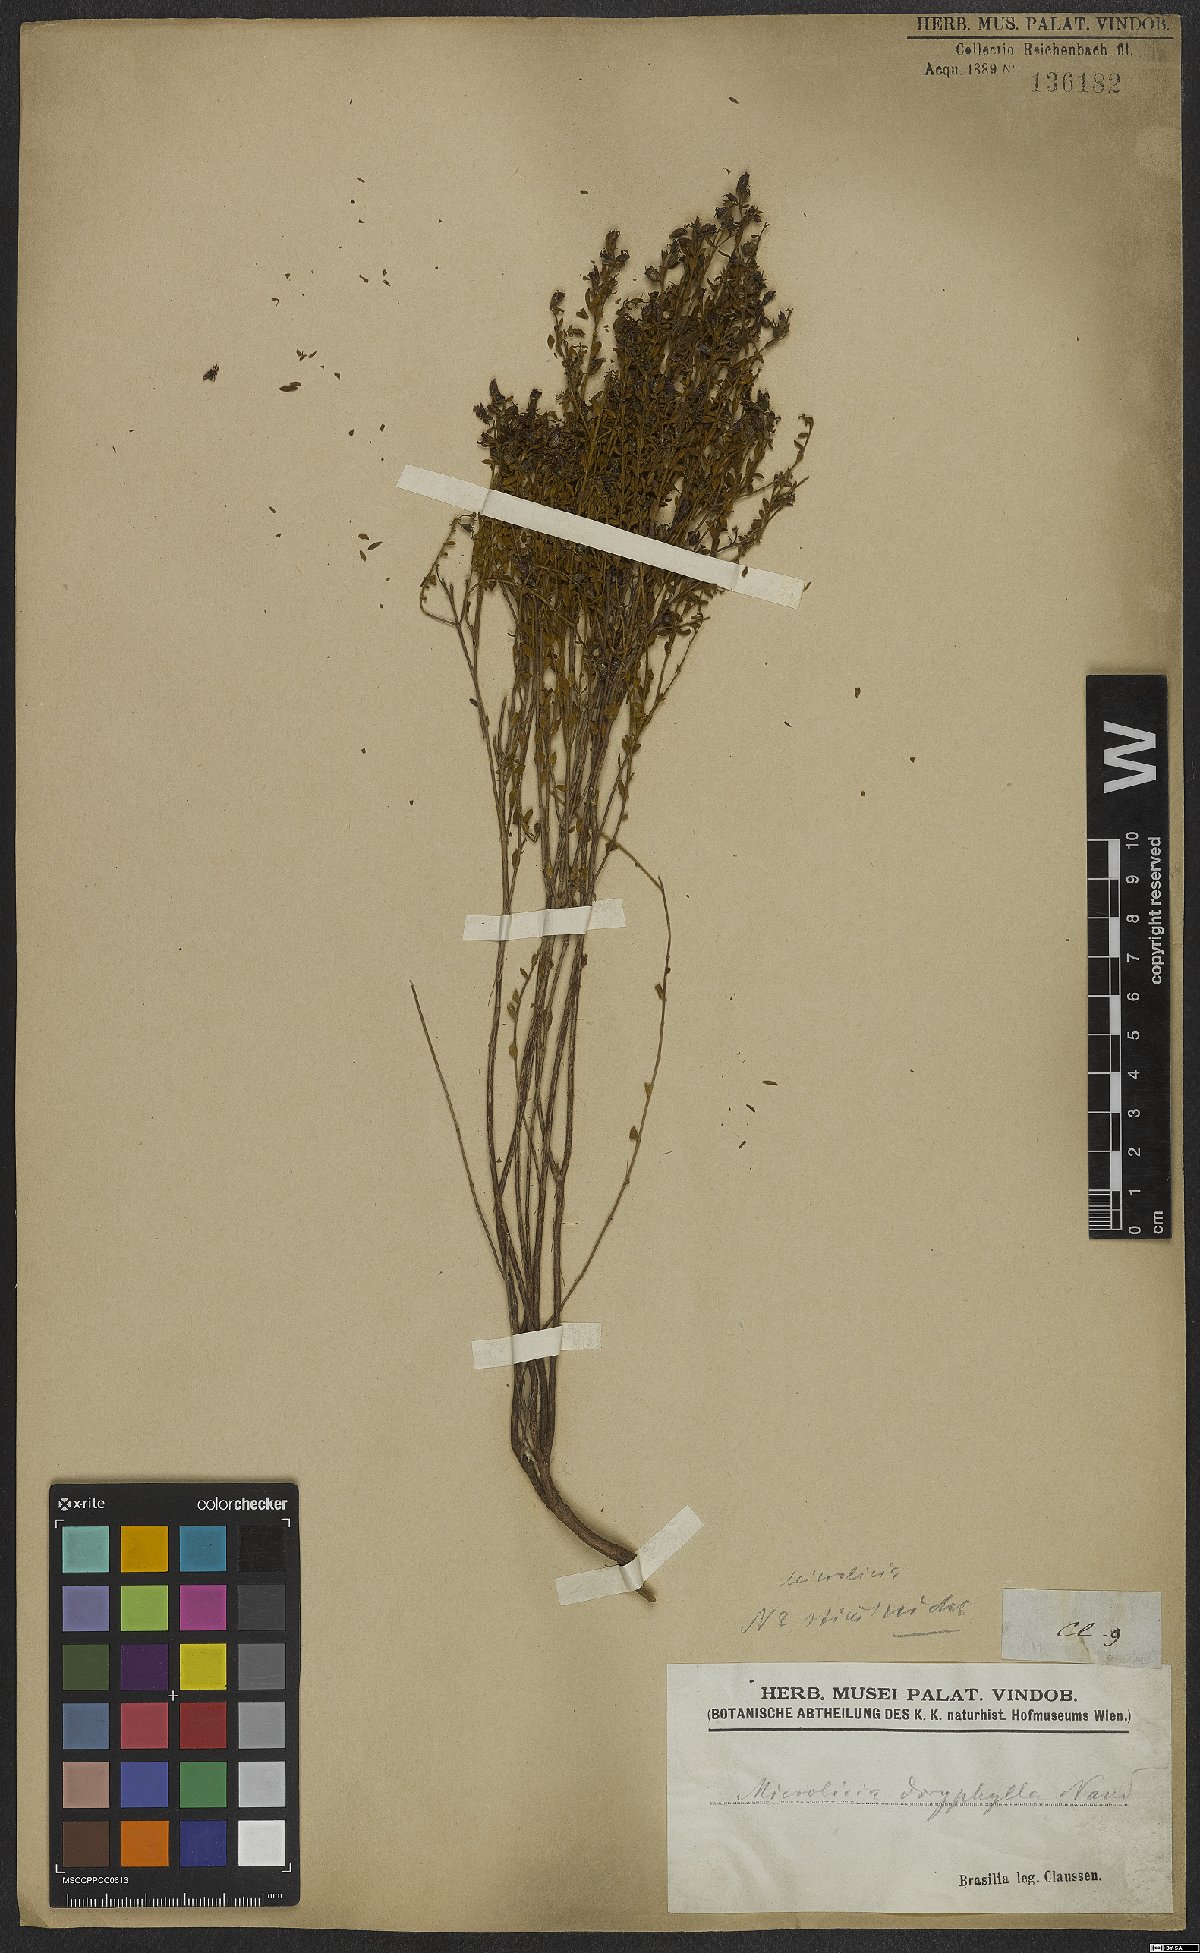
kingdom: Plantae
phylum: Tracheophyta
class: Magnoliopsida
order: Myrtales
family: Melastomataceae
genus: Microlicia
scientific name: Microlicia doryphylla
